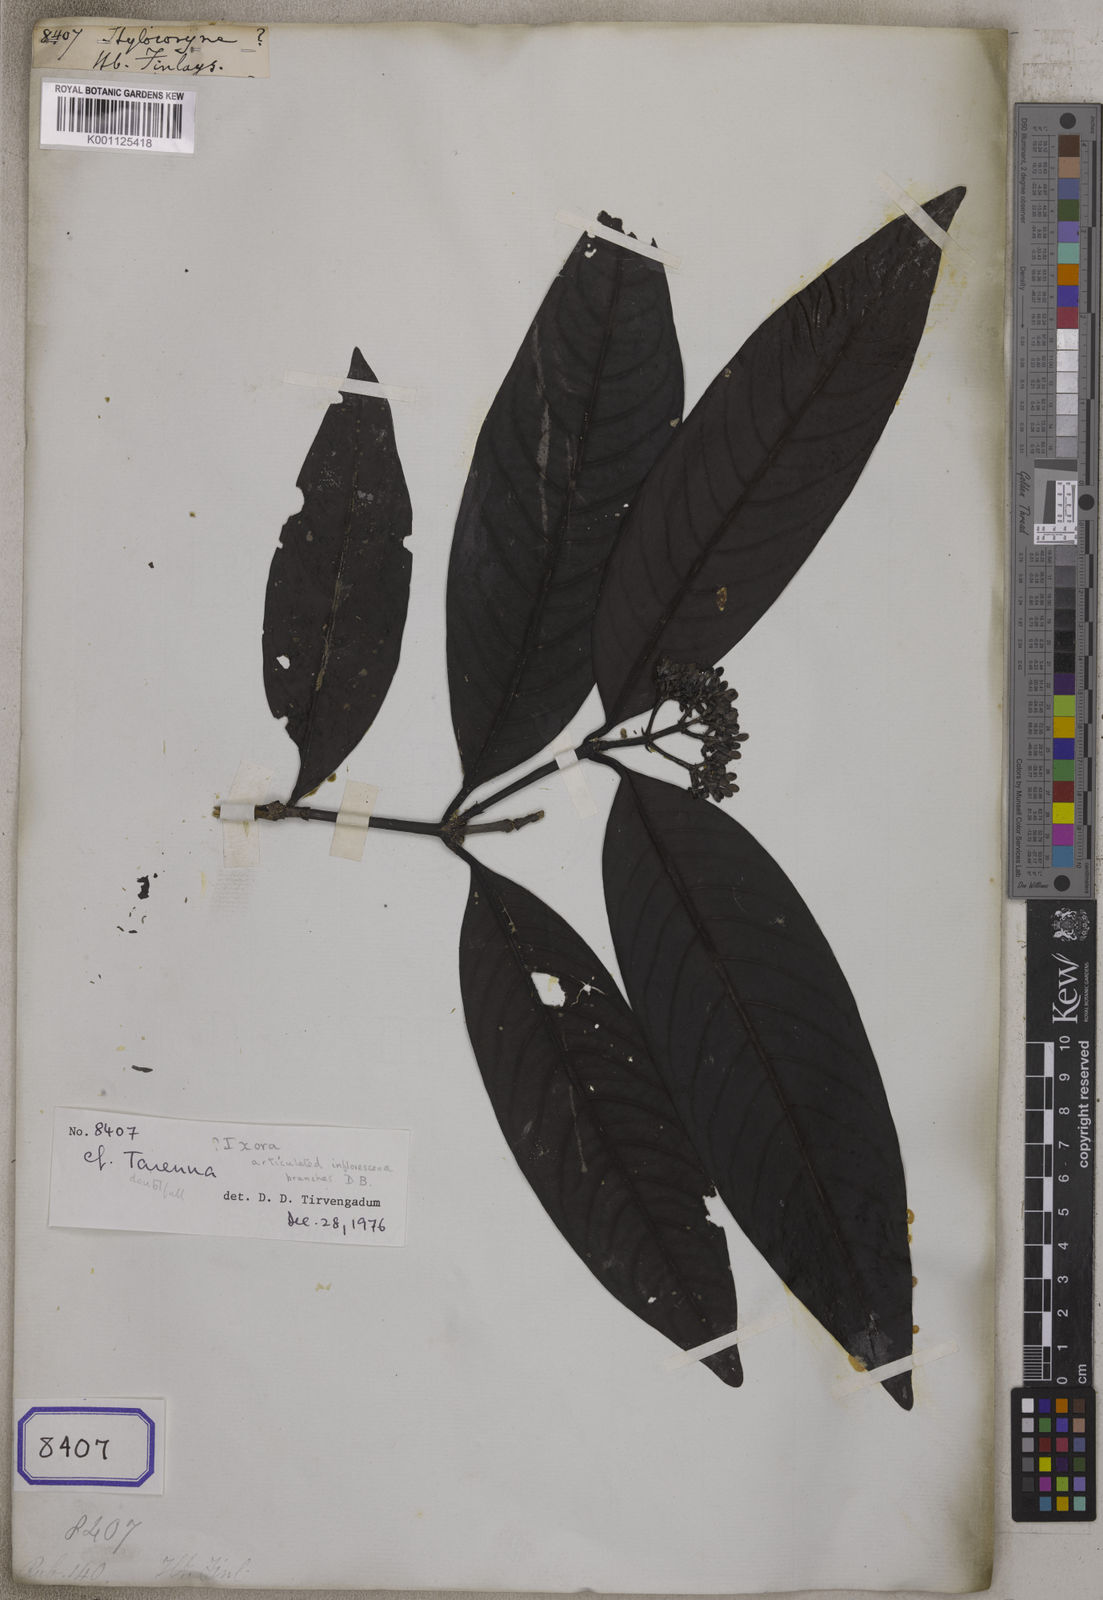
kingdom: Plantae
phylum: Tracheophyta
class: Magnoliopsida
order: Gentianales
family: Rubiaceae
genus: Aidia
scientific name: Aidia
